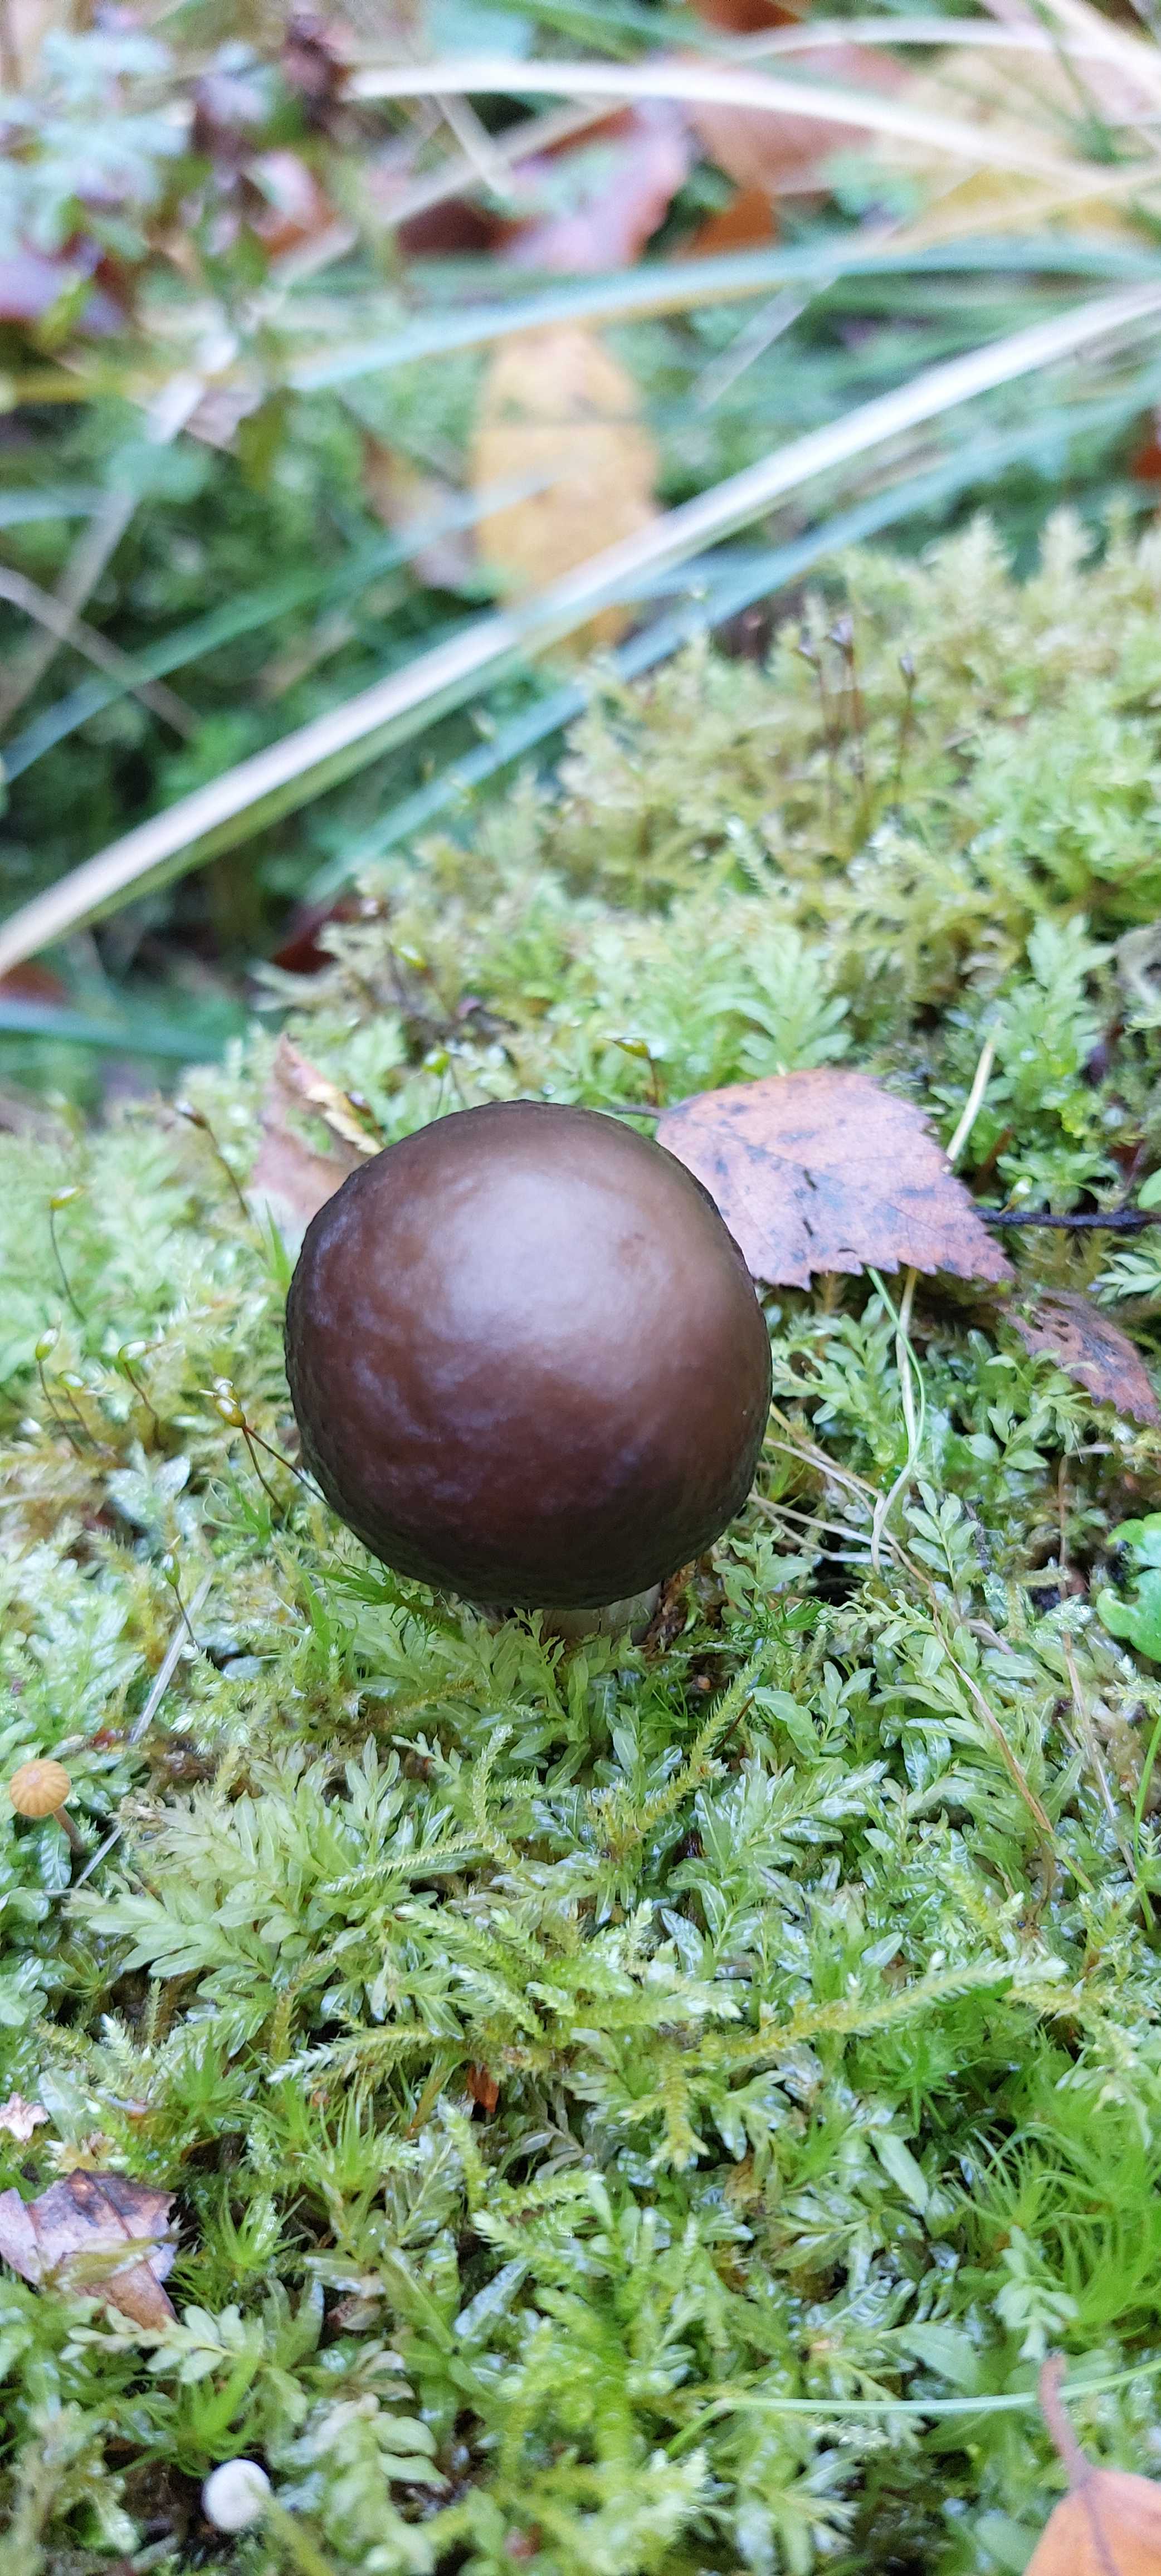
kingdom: Fungi
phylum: Basidiomycota
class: Agaricomycetes
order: Agaricales
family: Pluteaceae
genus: Pluteus
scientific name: Pluteus cervinus
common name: sodfarvet skærmhat
